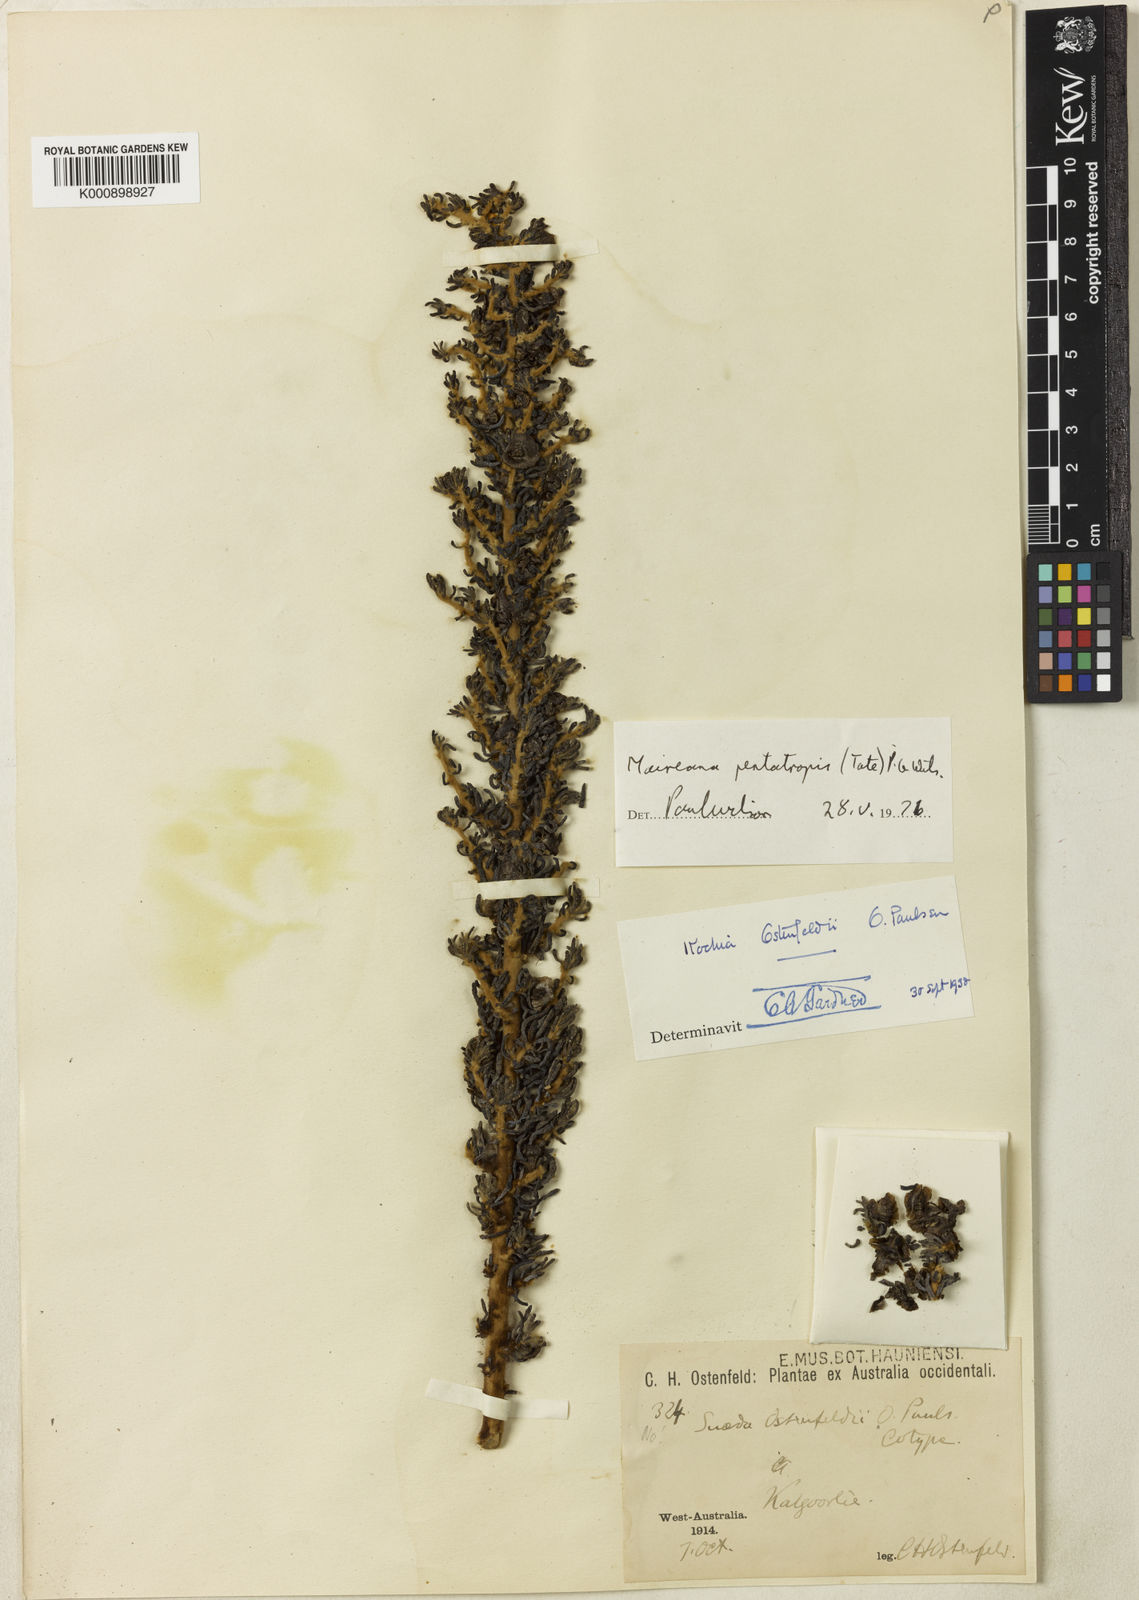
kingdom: Plantae
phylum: Tracheophyta
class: Magnoliopsida
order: Caryophyllales
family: Amaranthaceae
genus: Maireana
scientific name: Maireana
